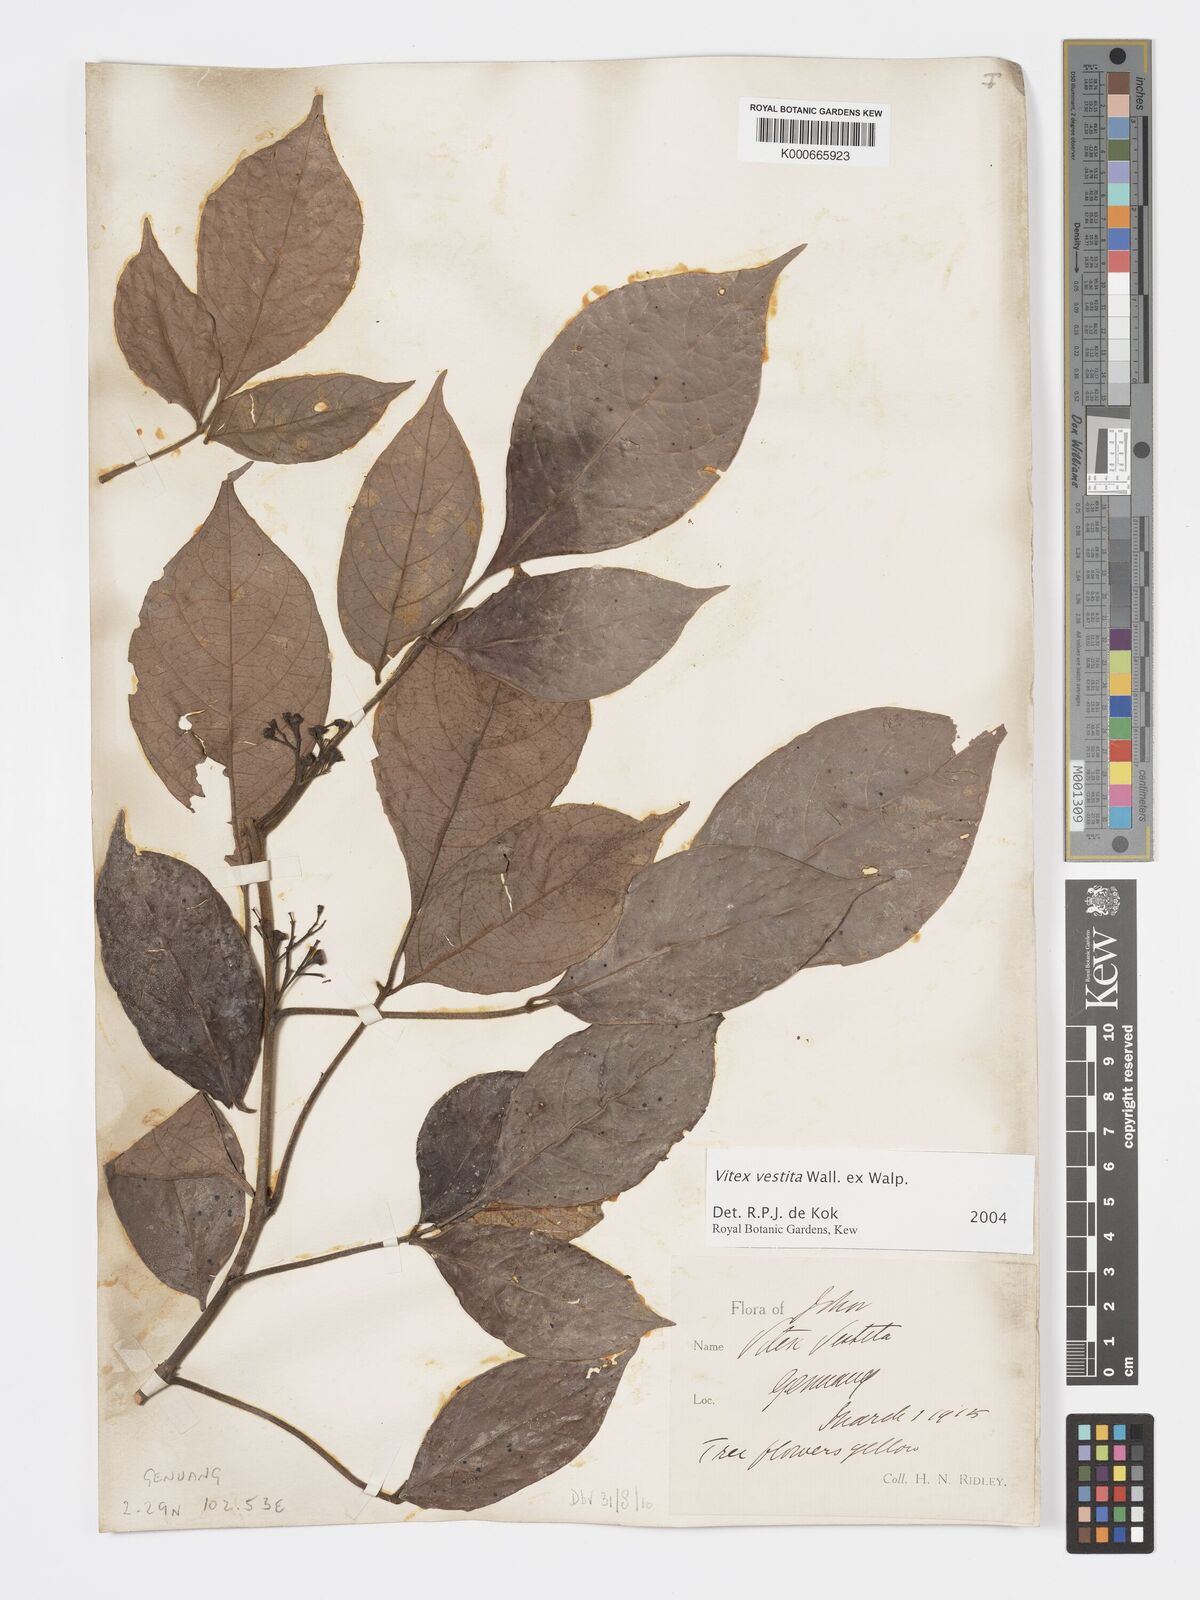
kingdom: Plantae
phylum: Tracheophyta
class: Magnoliopsida
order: Lamiales
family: Lamiaceae
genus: Vitex
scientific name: Vitex vestita
